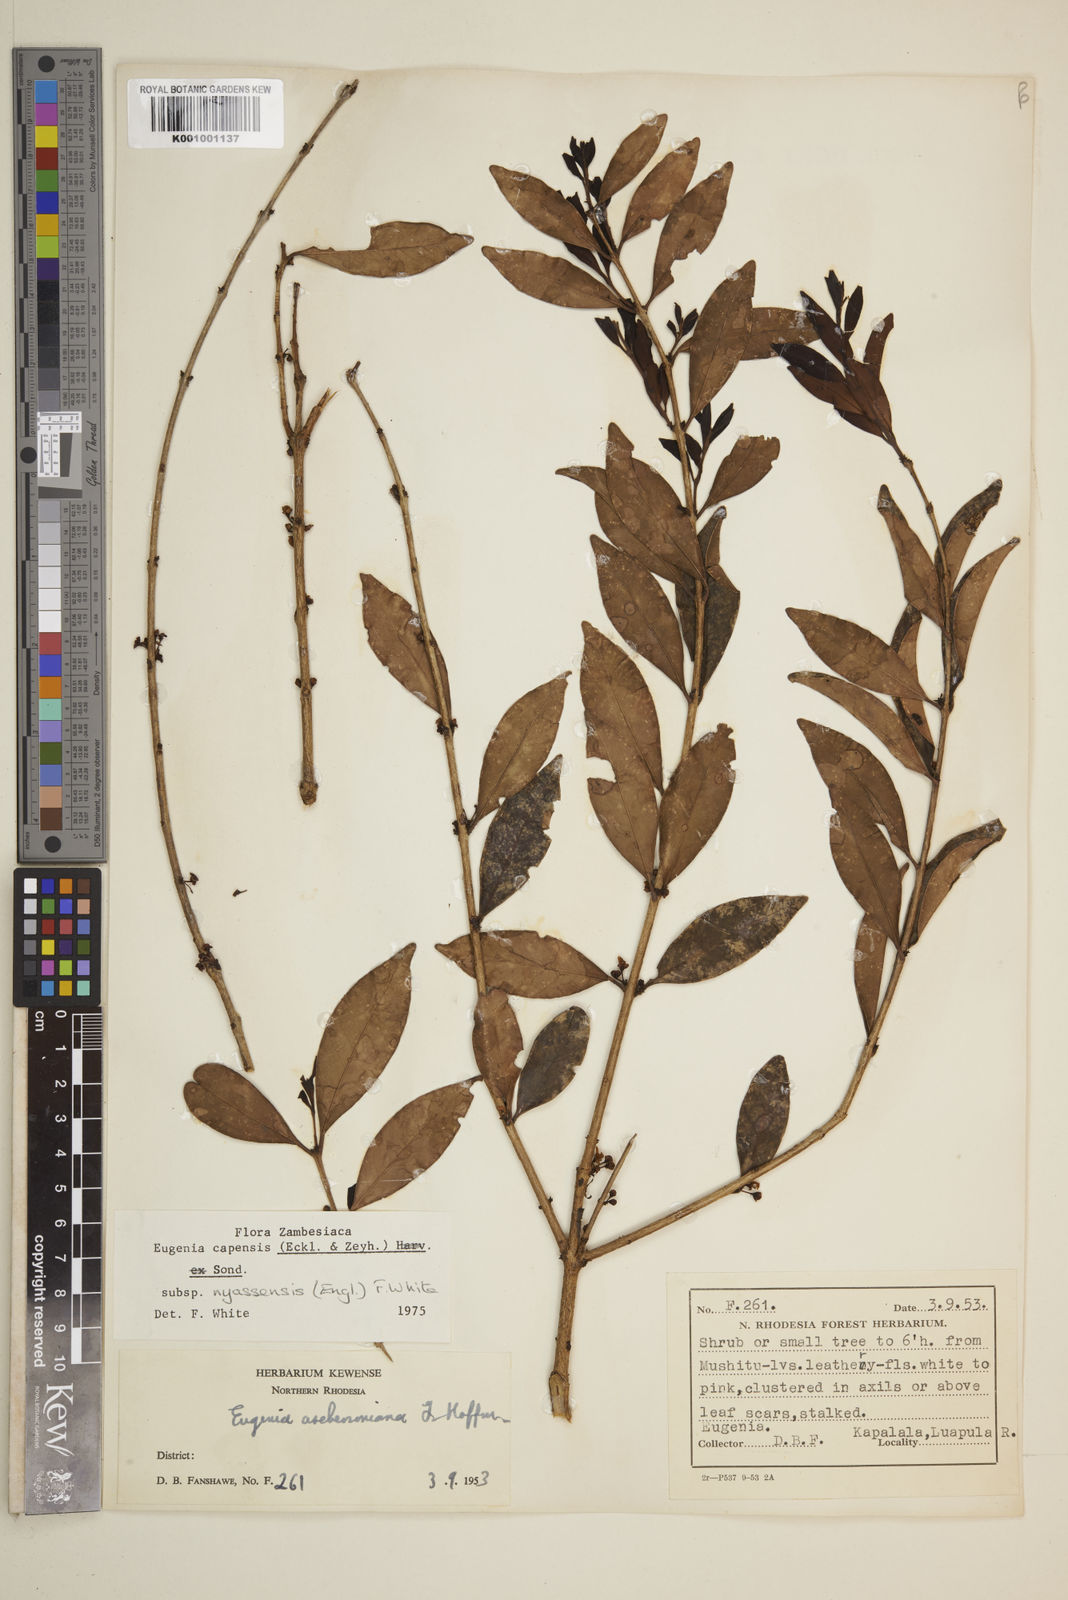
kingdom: Plantae
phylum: Tracheophyta
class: Magnoliopsida
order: Myrtales
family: Myrtaceae
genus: Eugenia
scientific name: Eugenia capensis
